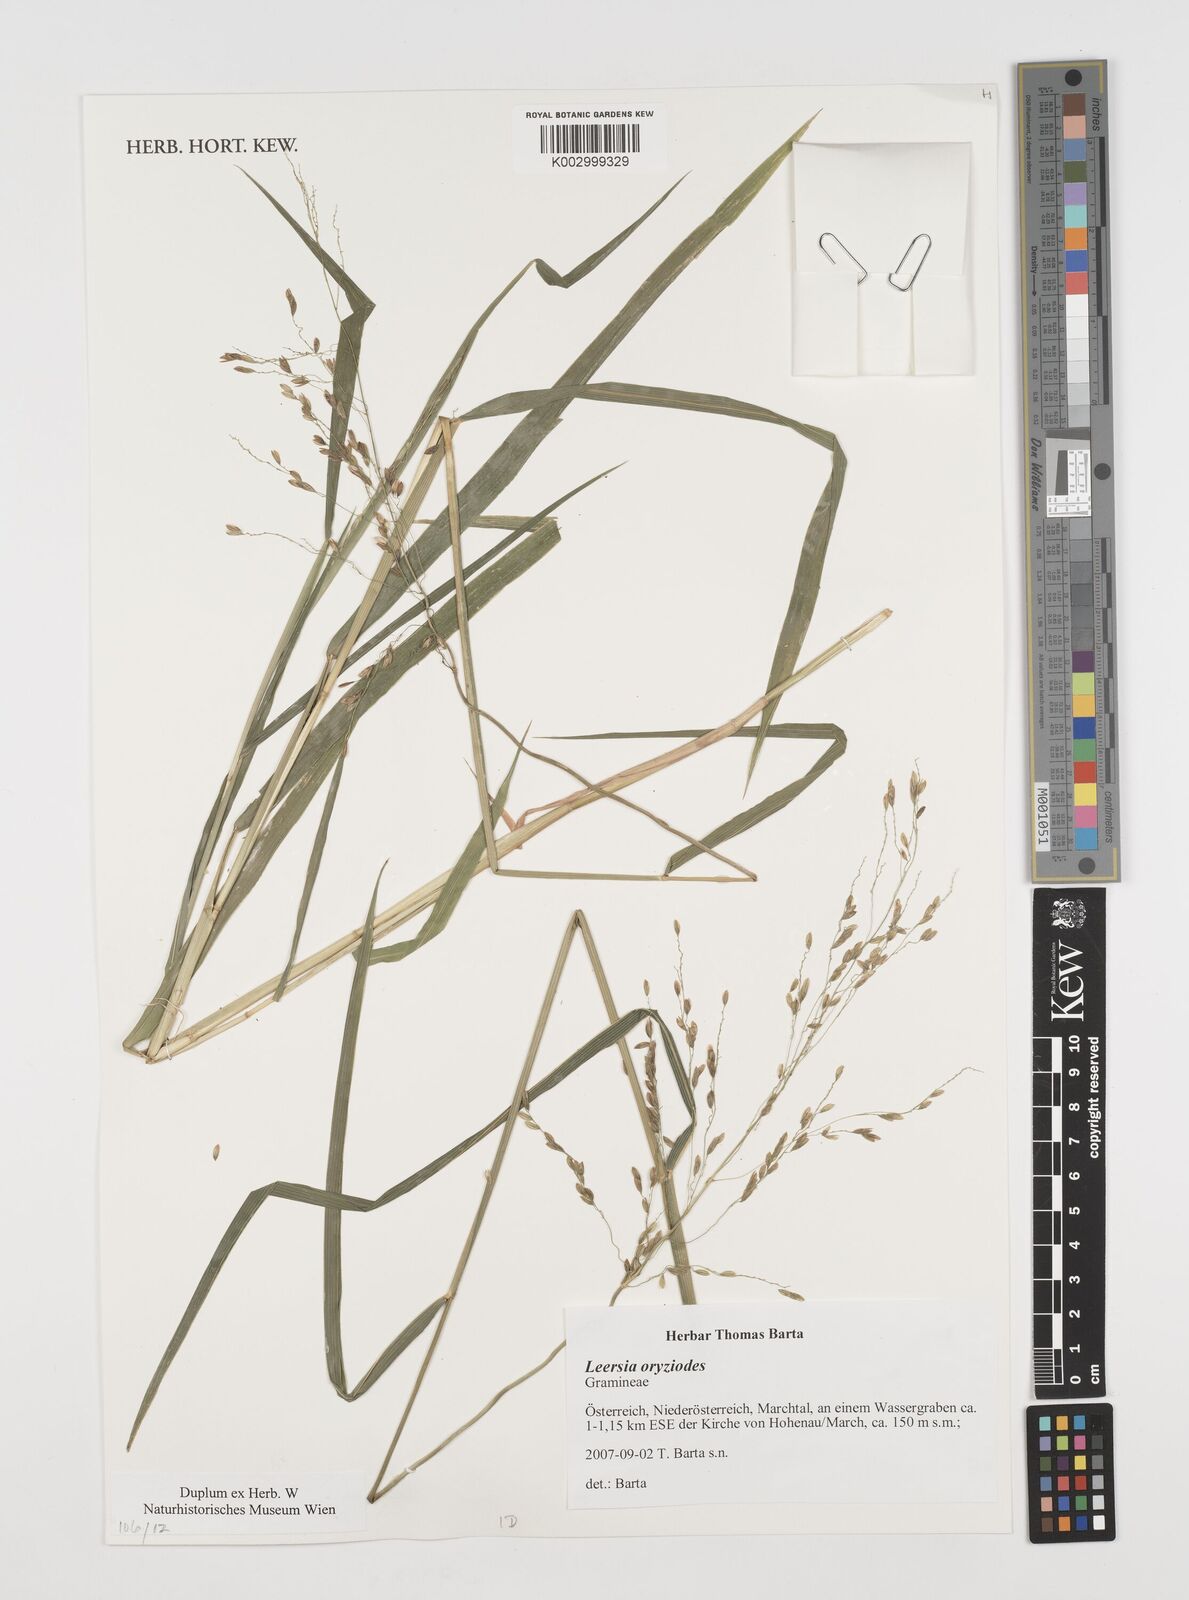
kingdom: Plantae
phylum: Tracheophyta
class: Liliopsida
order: Poales
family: Poaceae
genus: Leersia
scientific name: Leersia oryzoides
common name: Cut-grass
